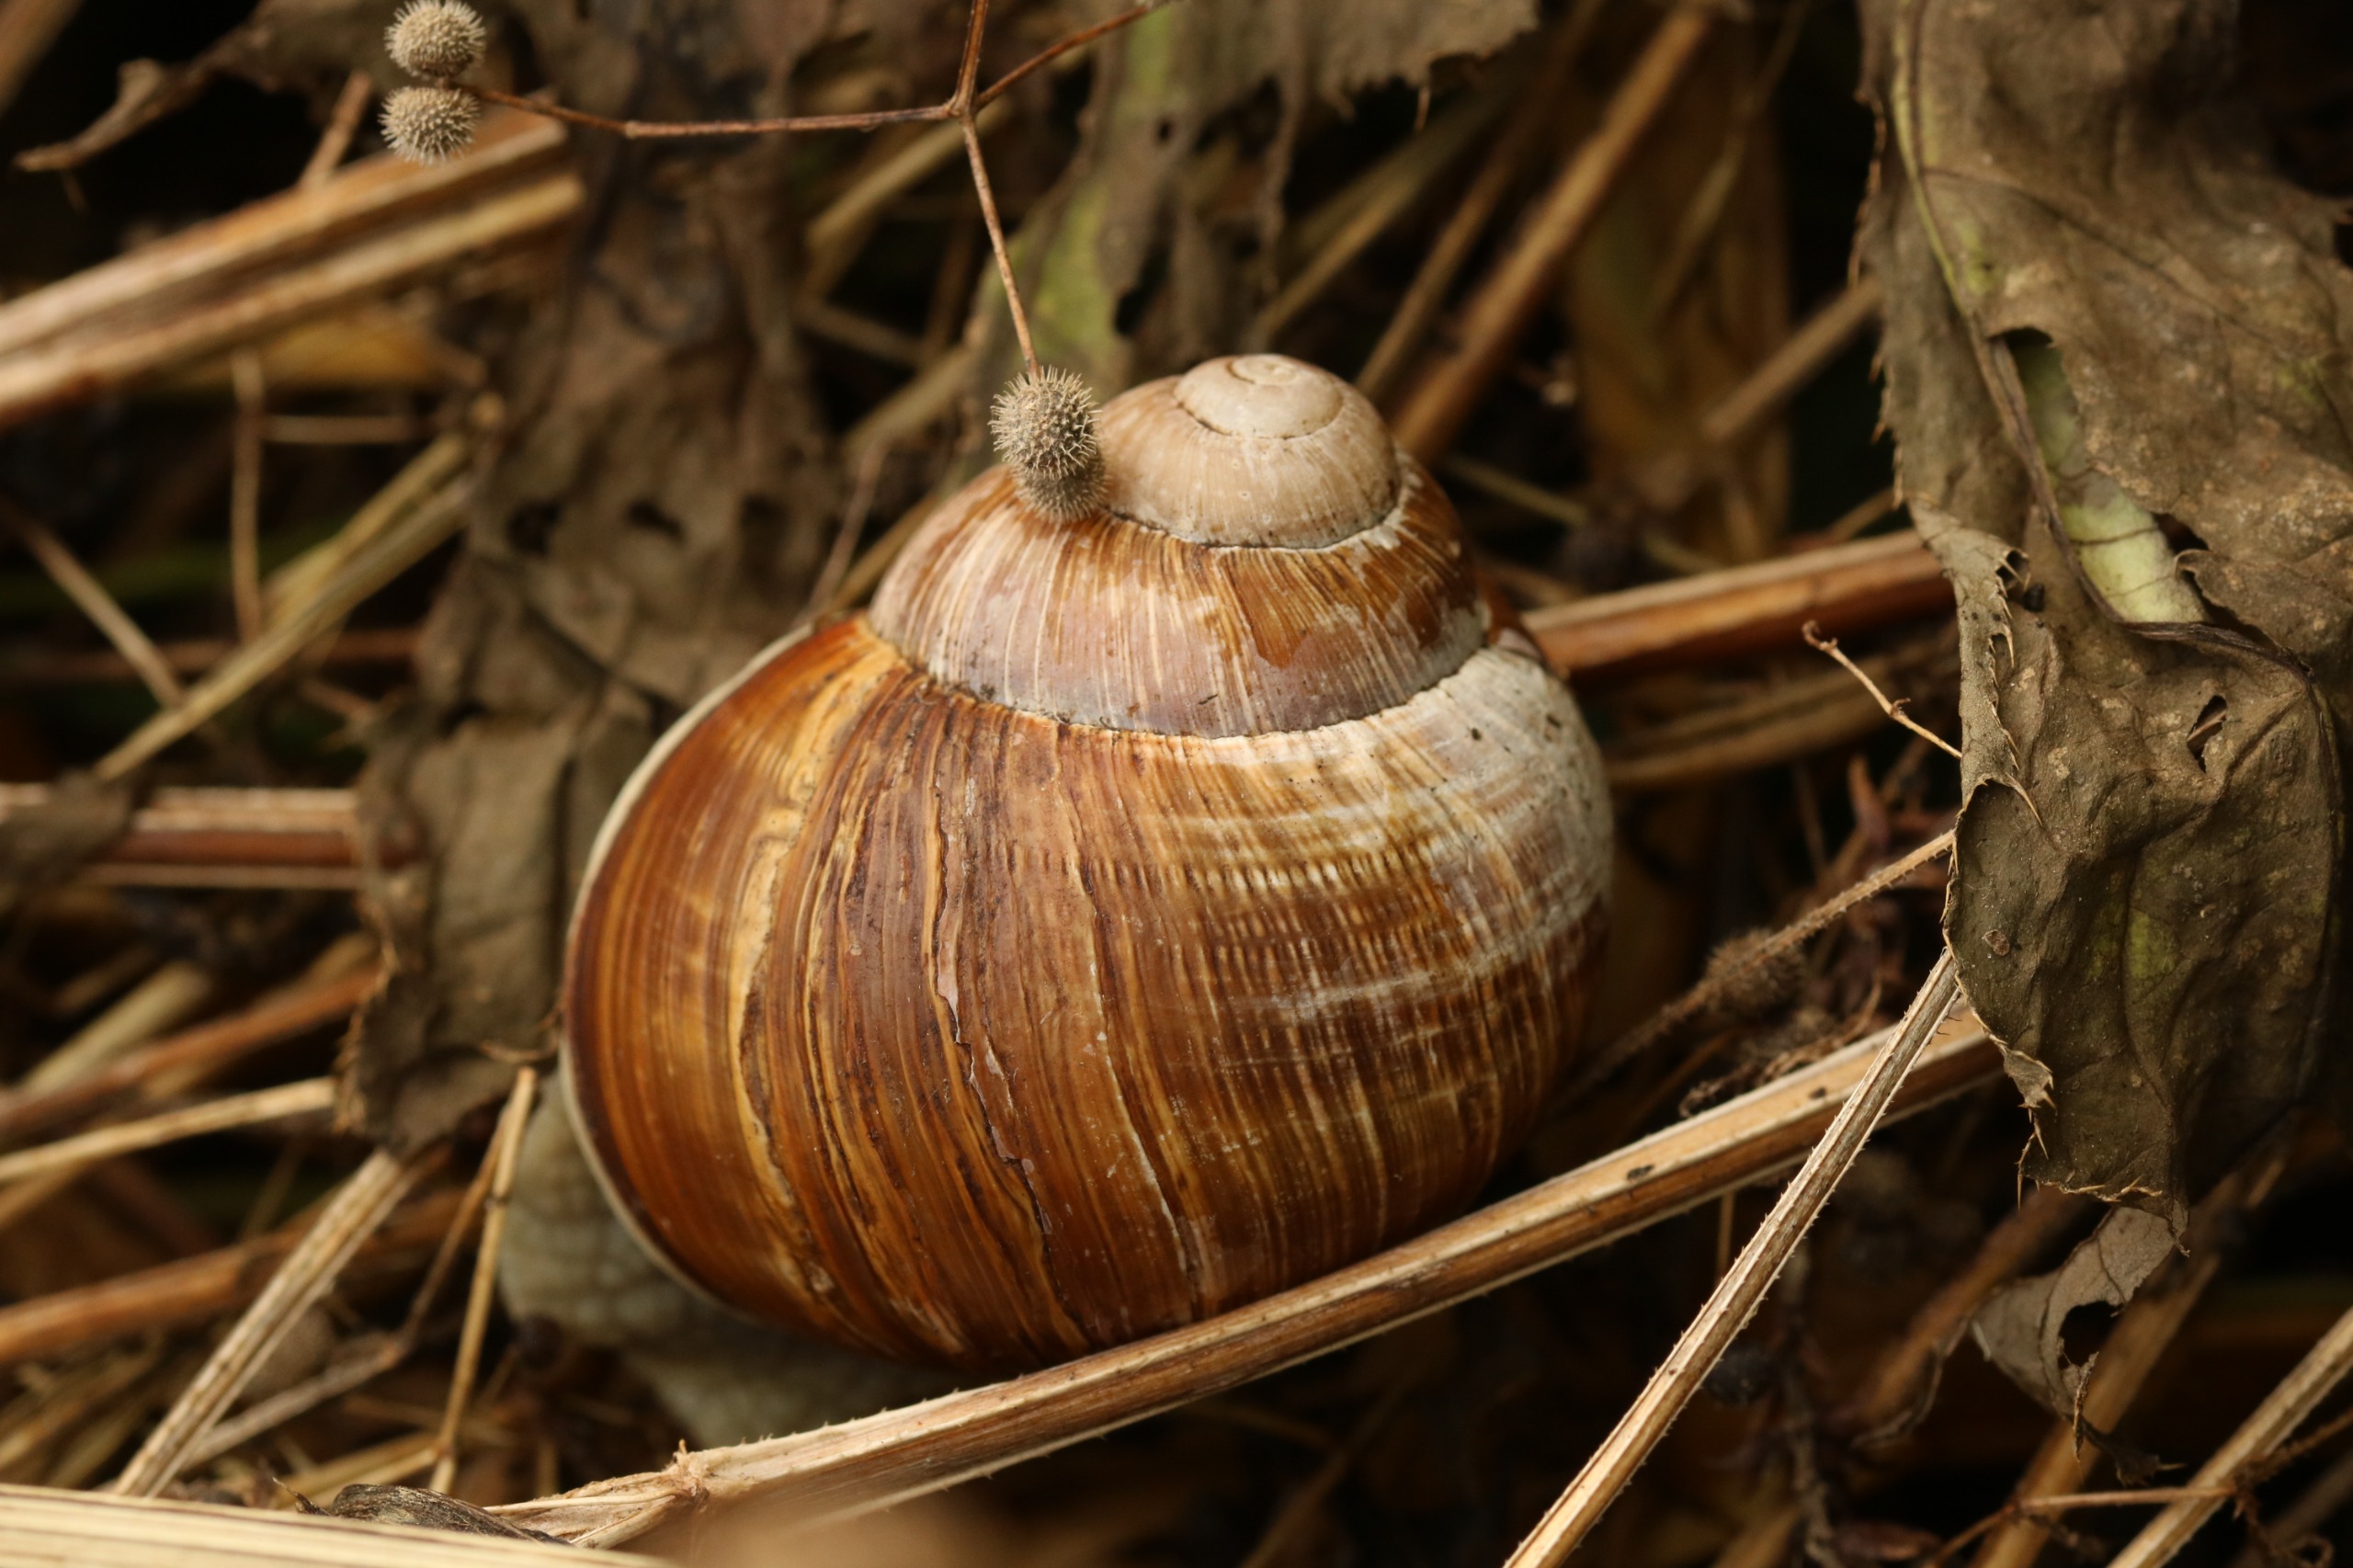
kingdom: Animalia
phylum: Mollusca
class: Gastropoda
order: Stylommatophora
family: Helicidae
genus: Helix
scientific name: Helix pomatia
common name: Vinbjergsnegl
